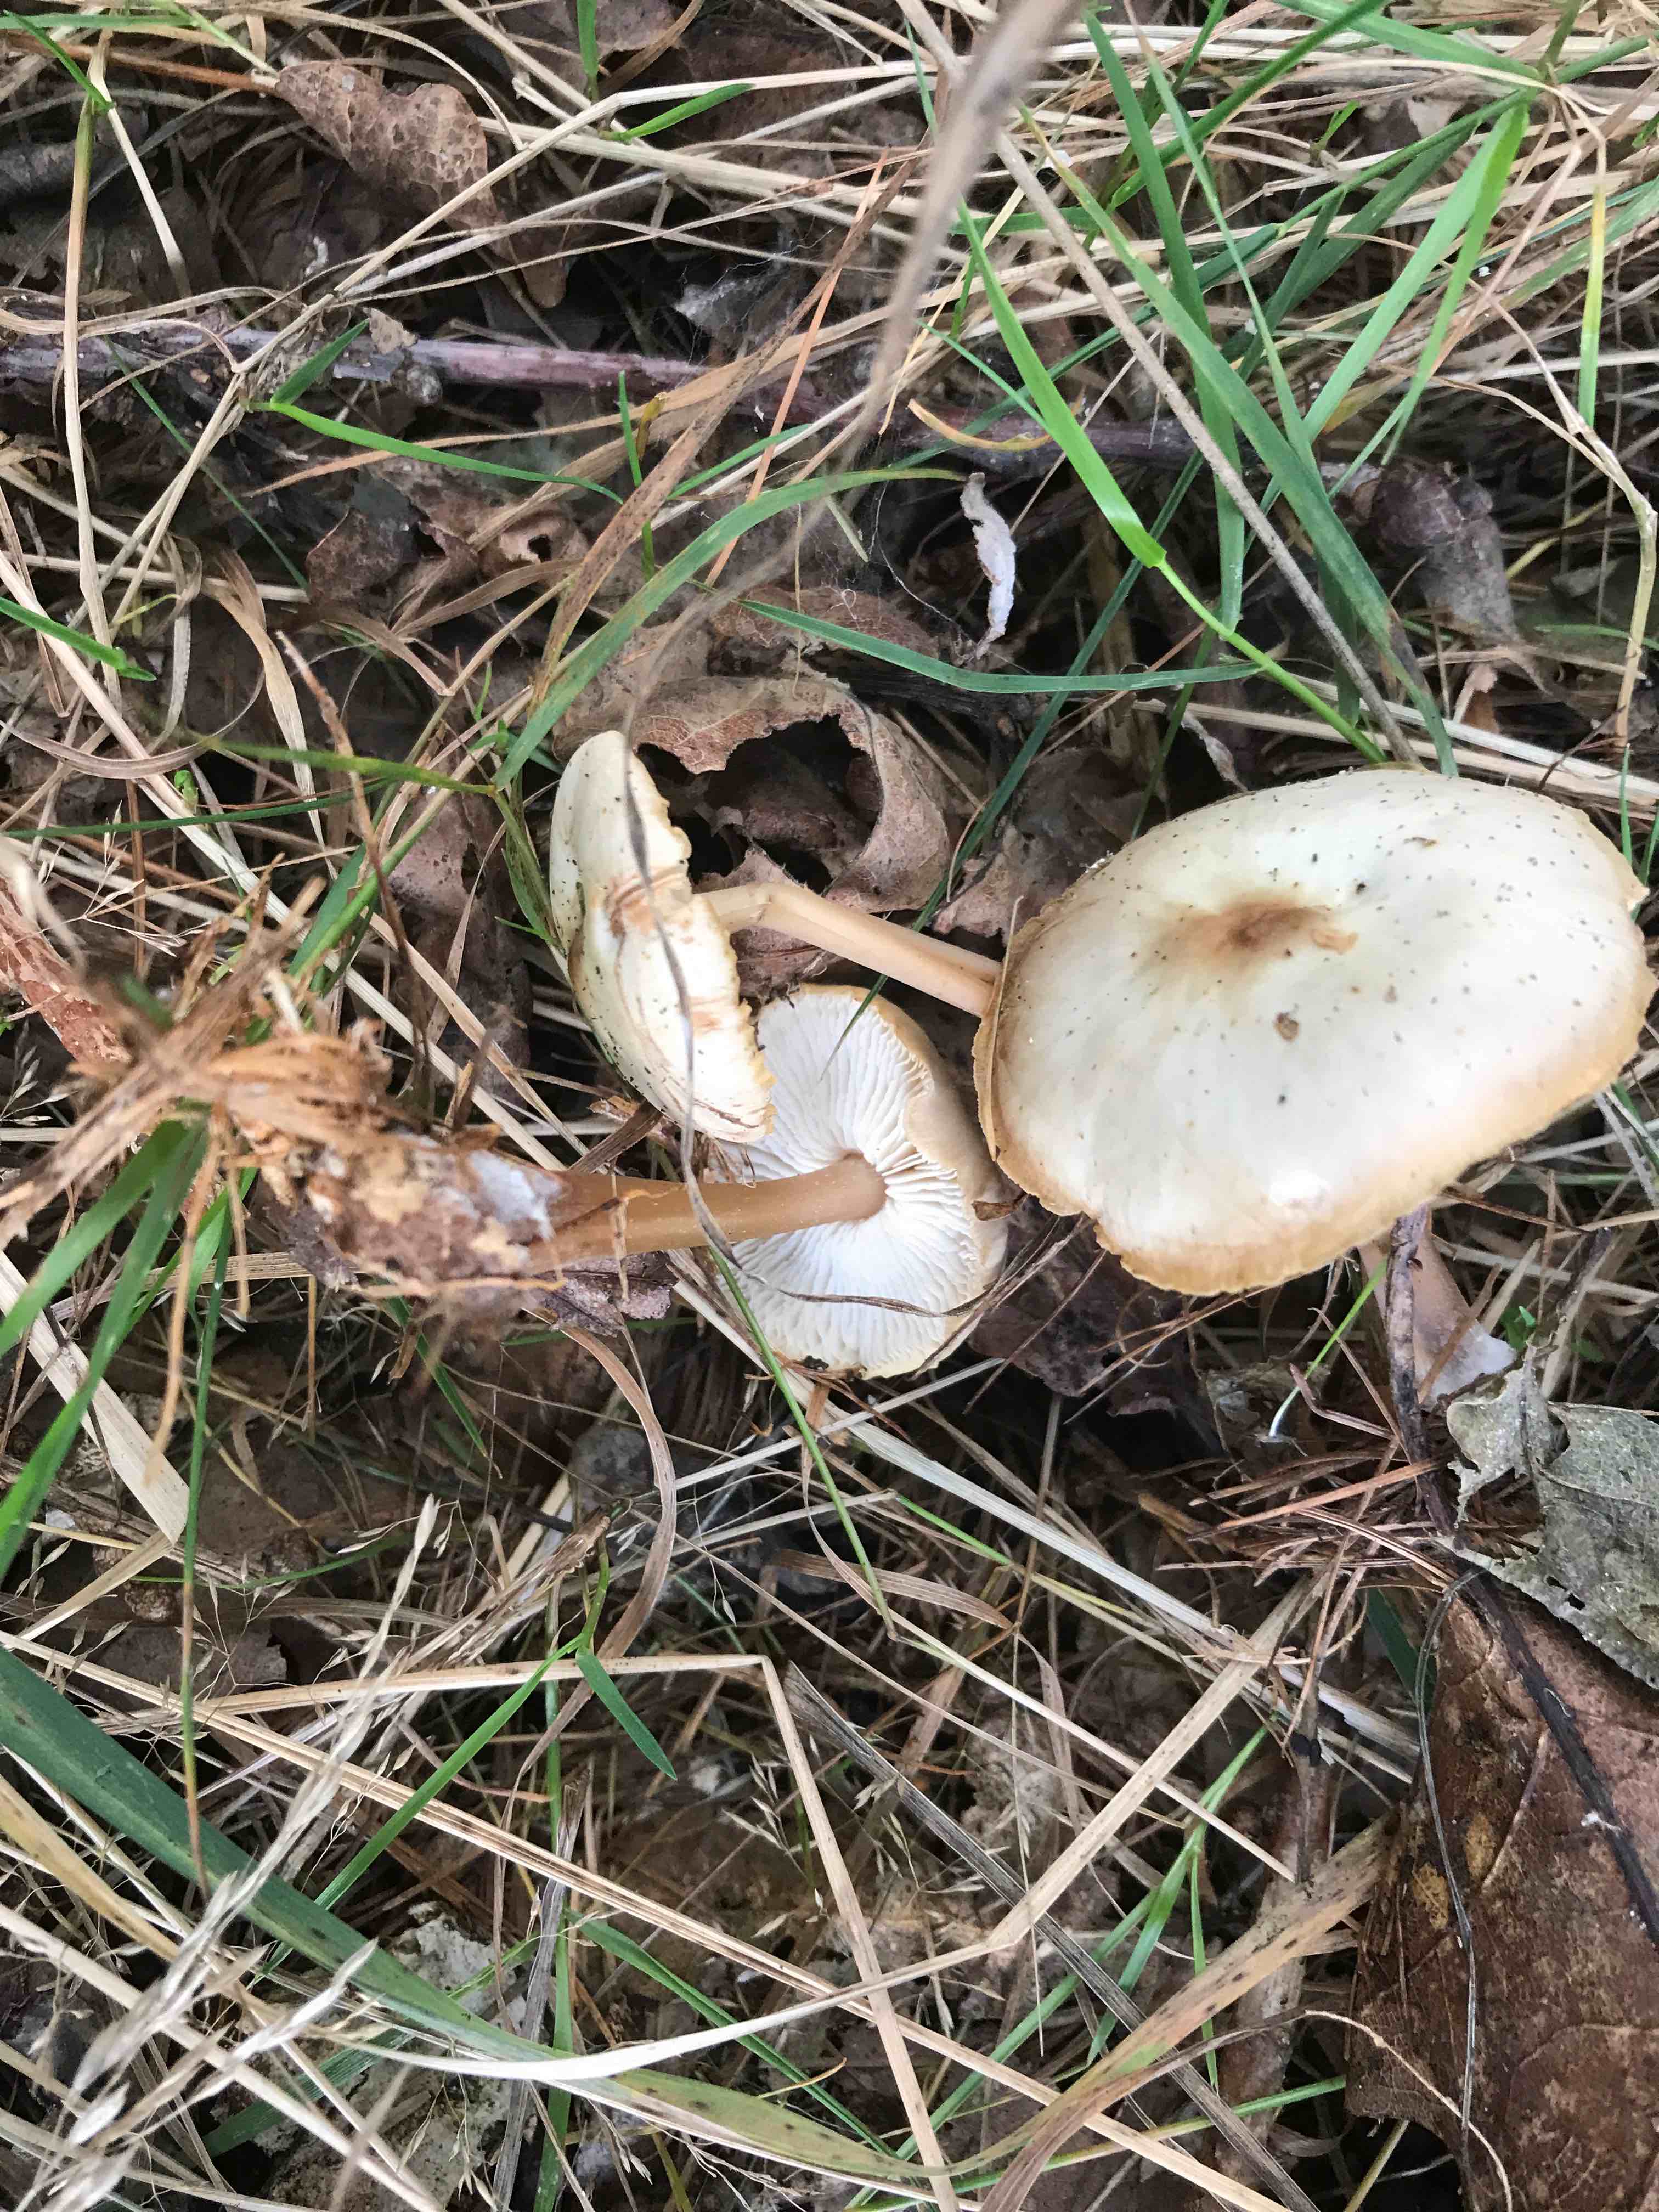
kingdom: Fungi
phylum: Basidiomycota
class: Agaricomycetes
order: Agaricales
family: Omphalotaceae
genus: Rhodocollybia
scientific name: Rhodocollybia asema
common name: horngrå fladhat
